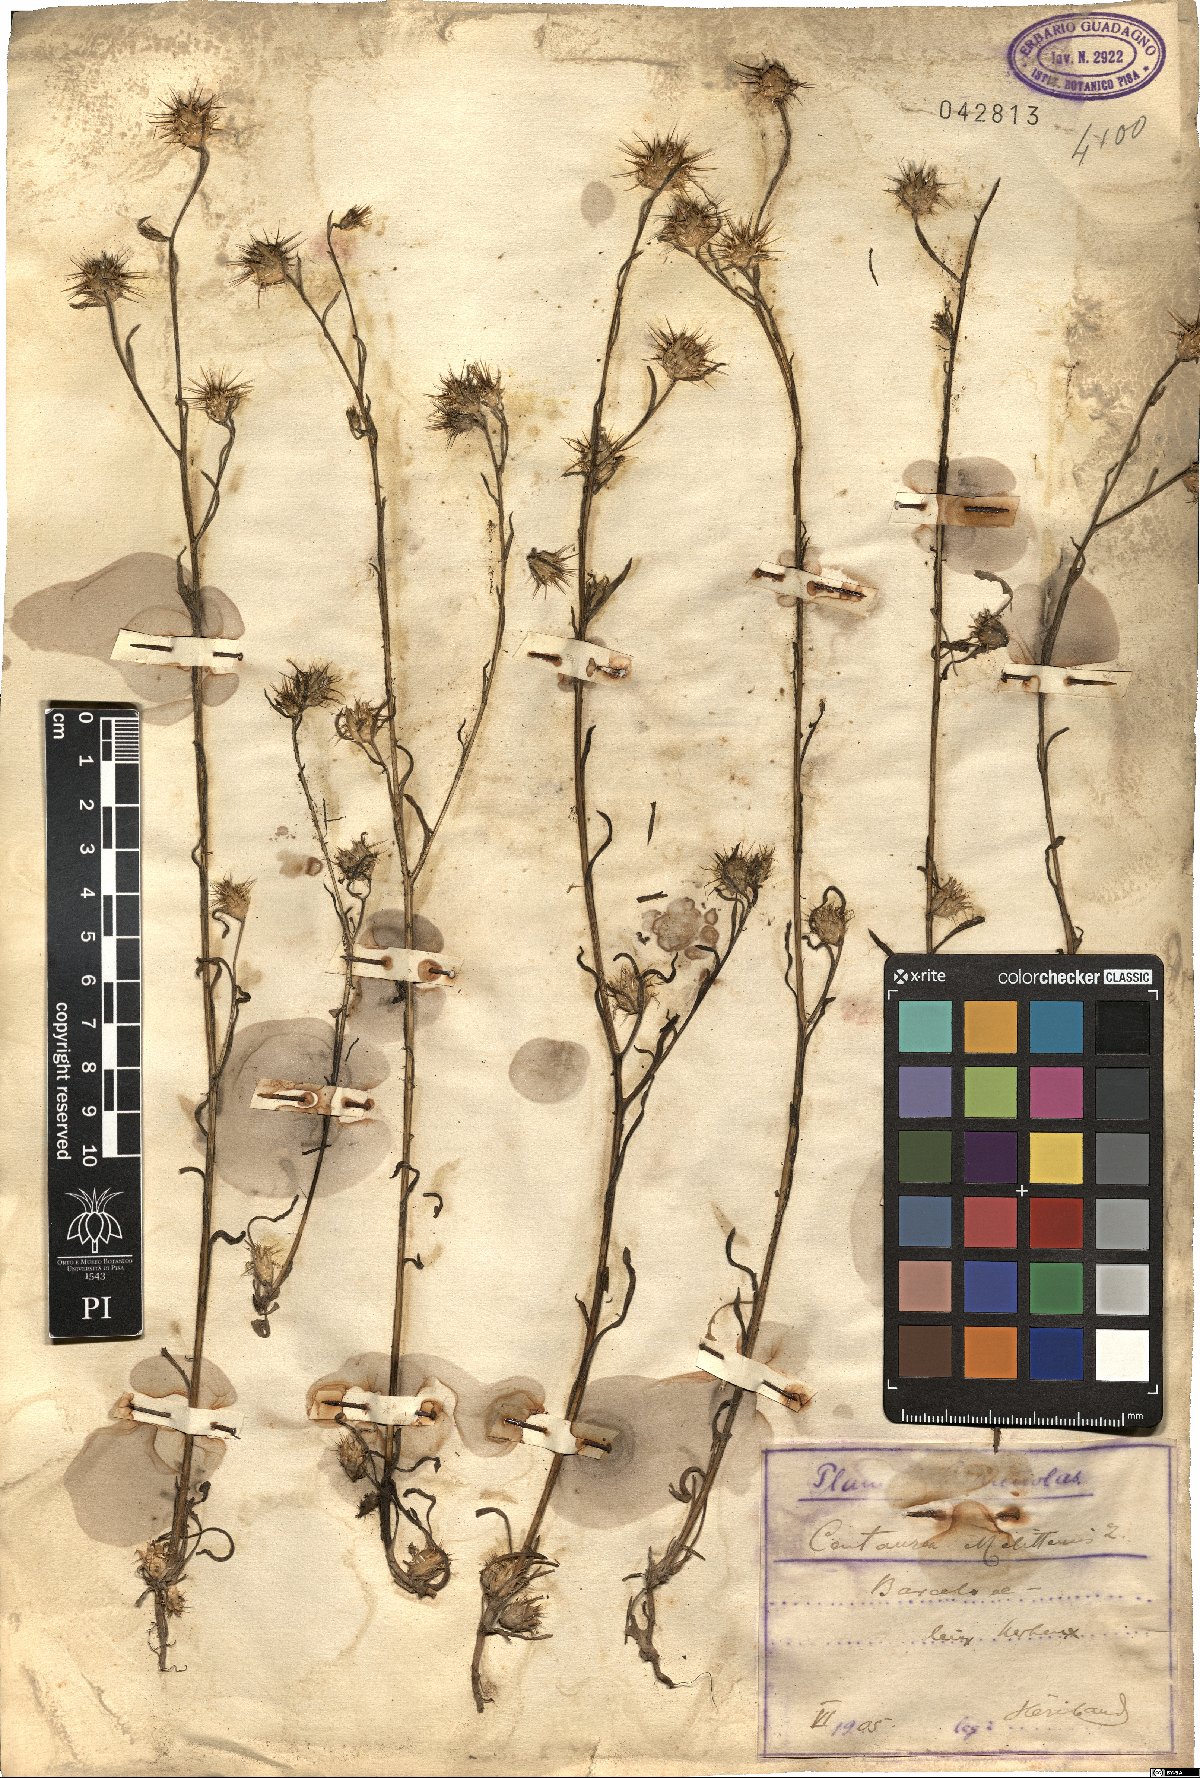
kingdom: Plantae
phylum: Tracheophyta
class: Magnoliopsida
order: Asterales
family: Asteraceae
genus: Centaurea
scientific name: Centaurea melitensis
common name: Maltese star-thistle
